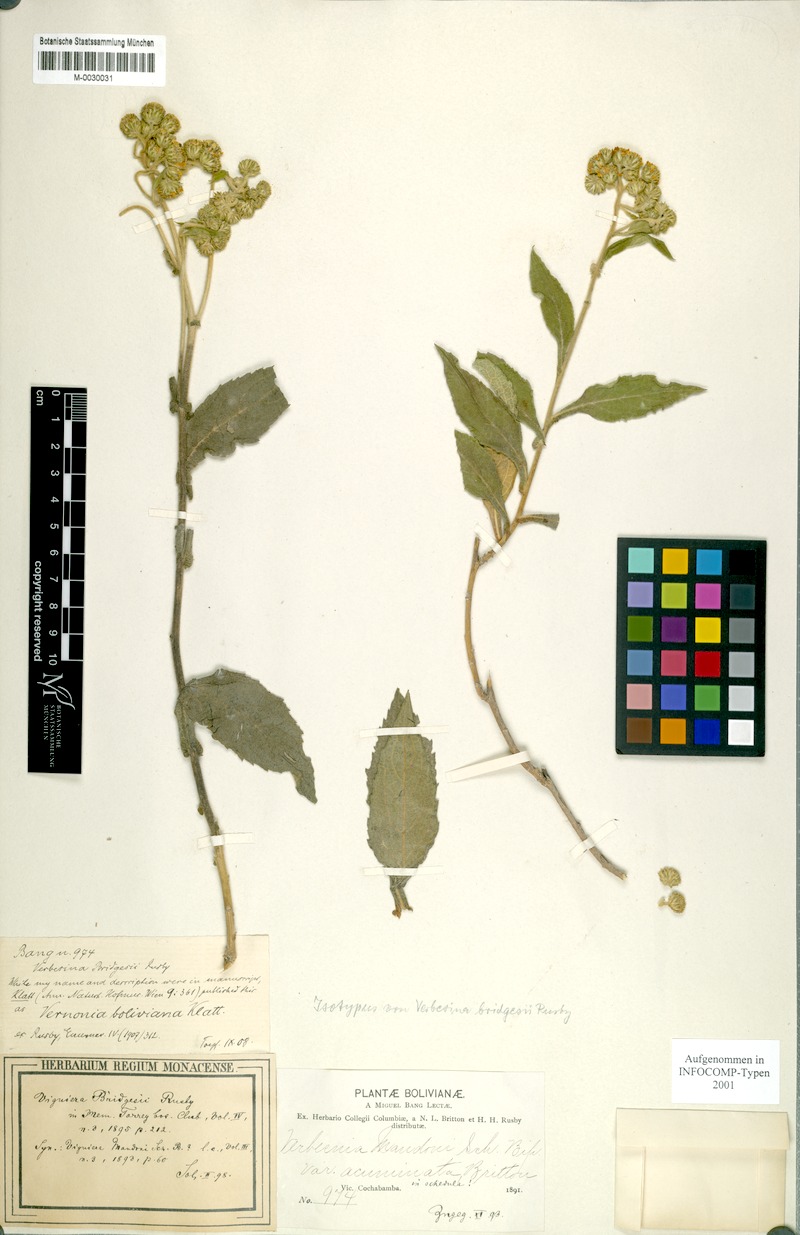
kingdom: Plantae
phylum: Tracheophyta
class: Magnoliopsida
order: Asterales
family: Asteraceae
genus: Verbesina
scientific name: Verbesina boliviana
